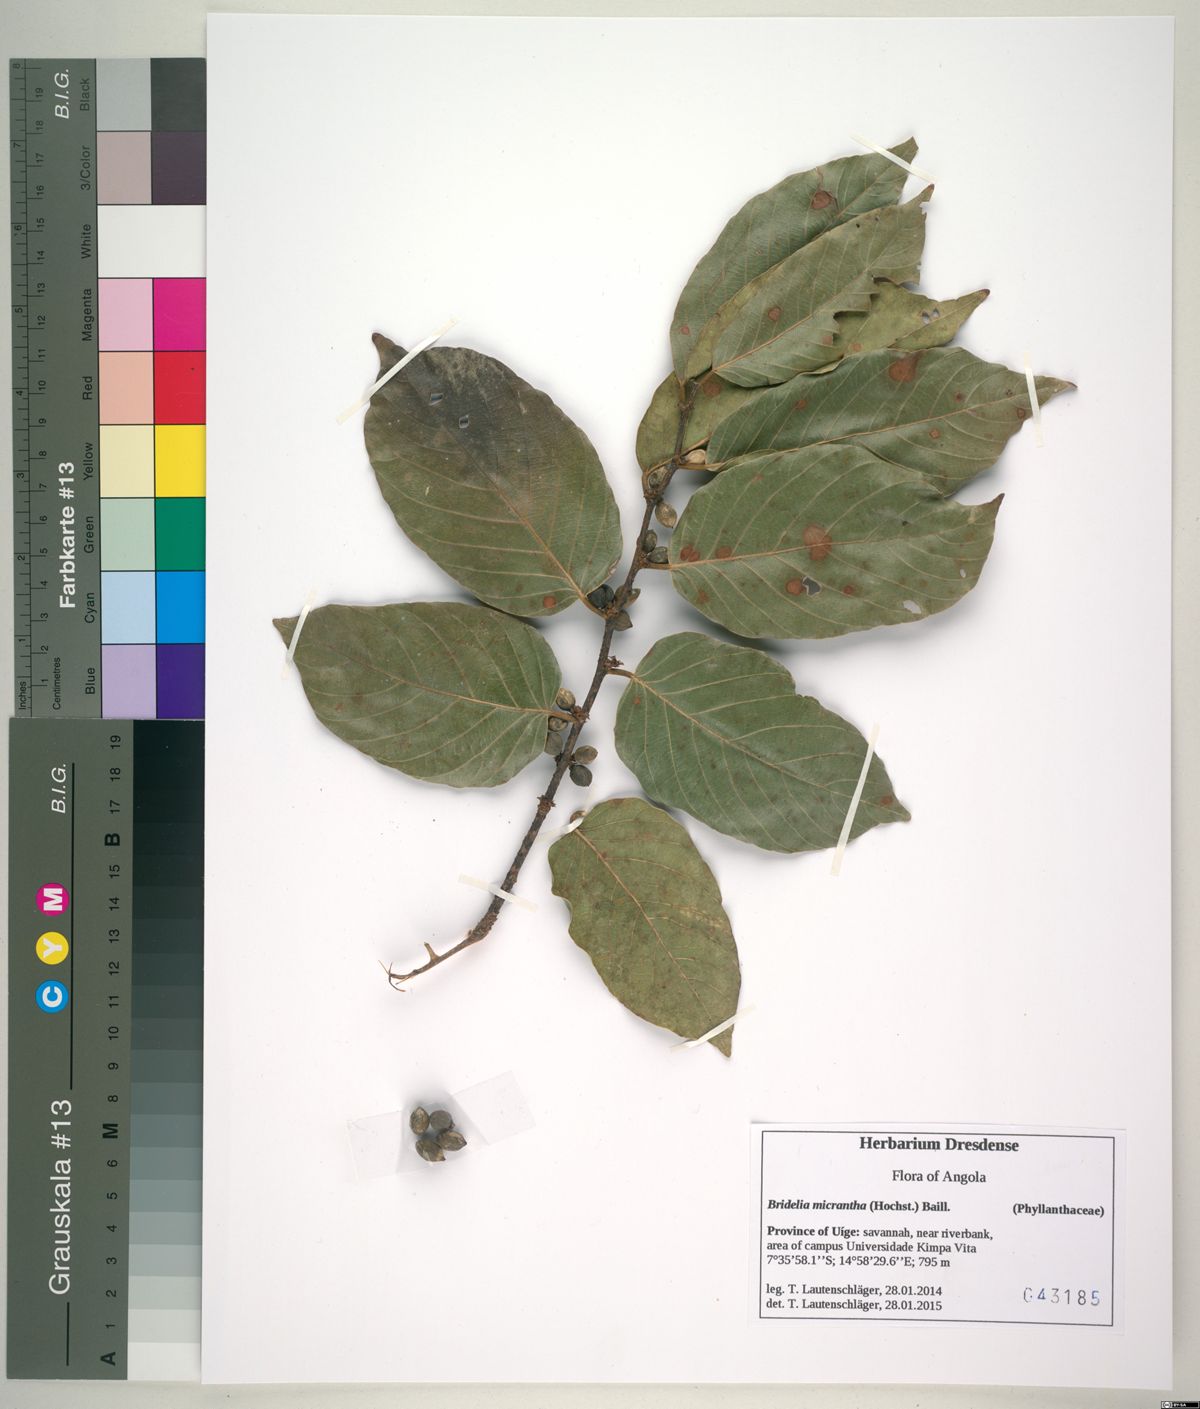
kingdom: Plantae
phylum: Tracheophyta
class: Magnoliopsida
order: Malpighiales
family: Phyllanthaceae
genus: Bridelia
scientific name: Bridelia micrantha
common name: Bridelia
